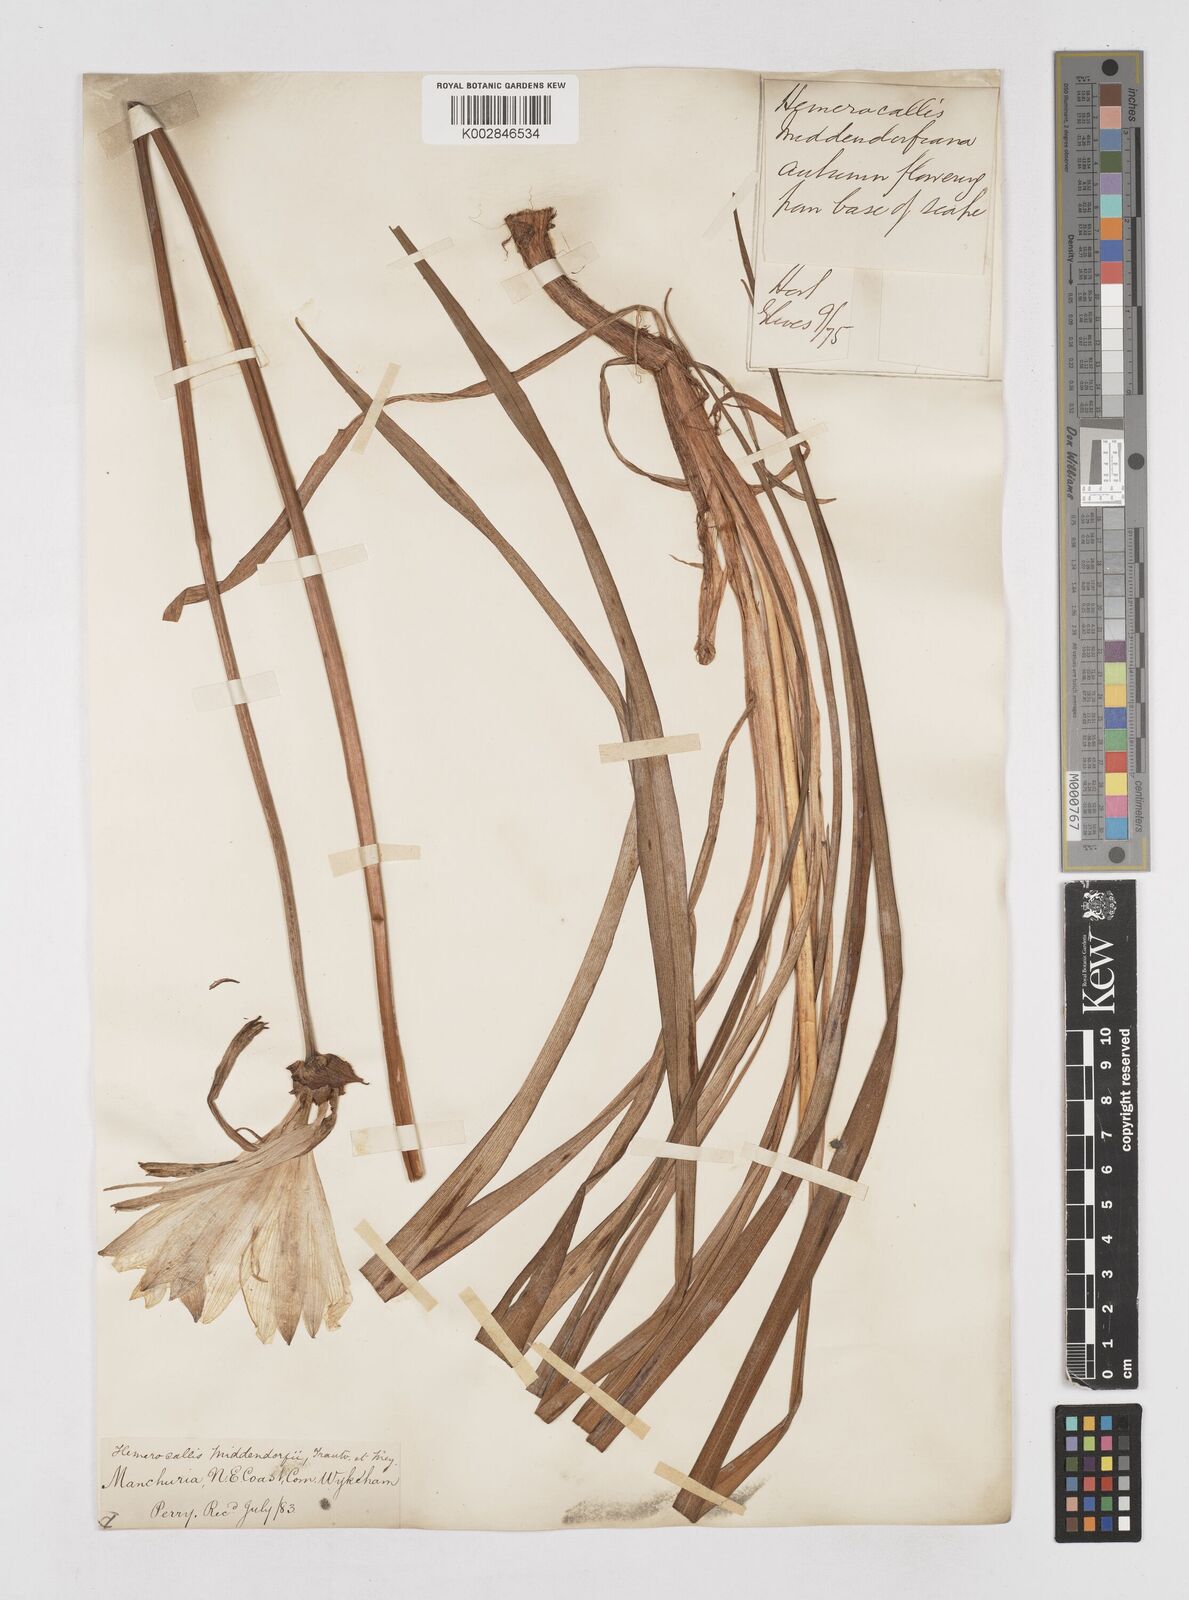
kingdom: Plantae
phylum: Tracheophyta
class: Liliopsida
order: Asparagales
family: Asphodelaceae
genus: Hemerocallis
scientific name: Hemerocallis middendorffii
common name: Amur day-lily
